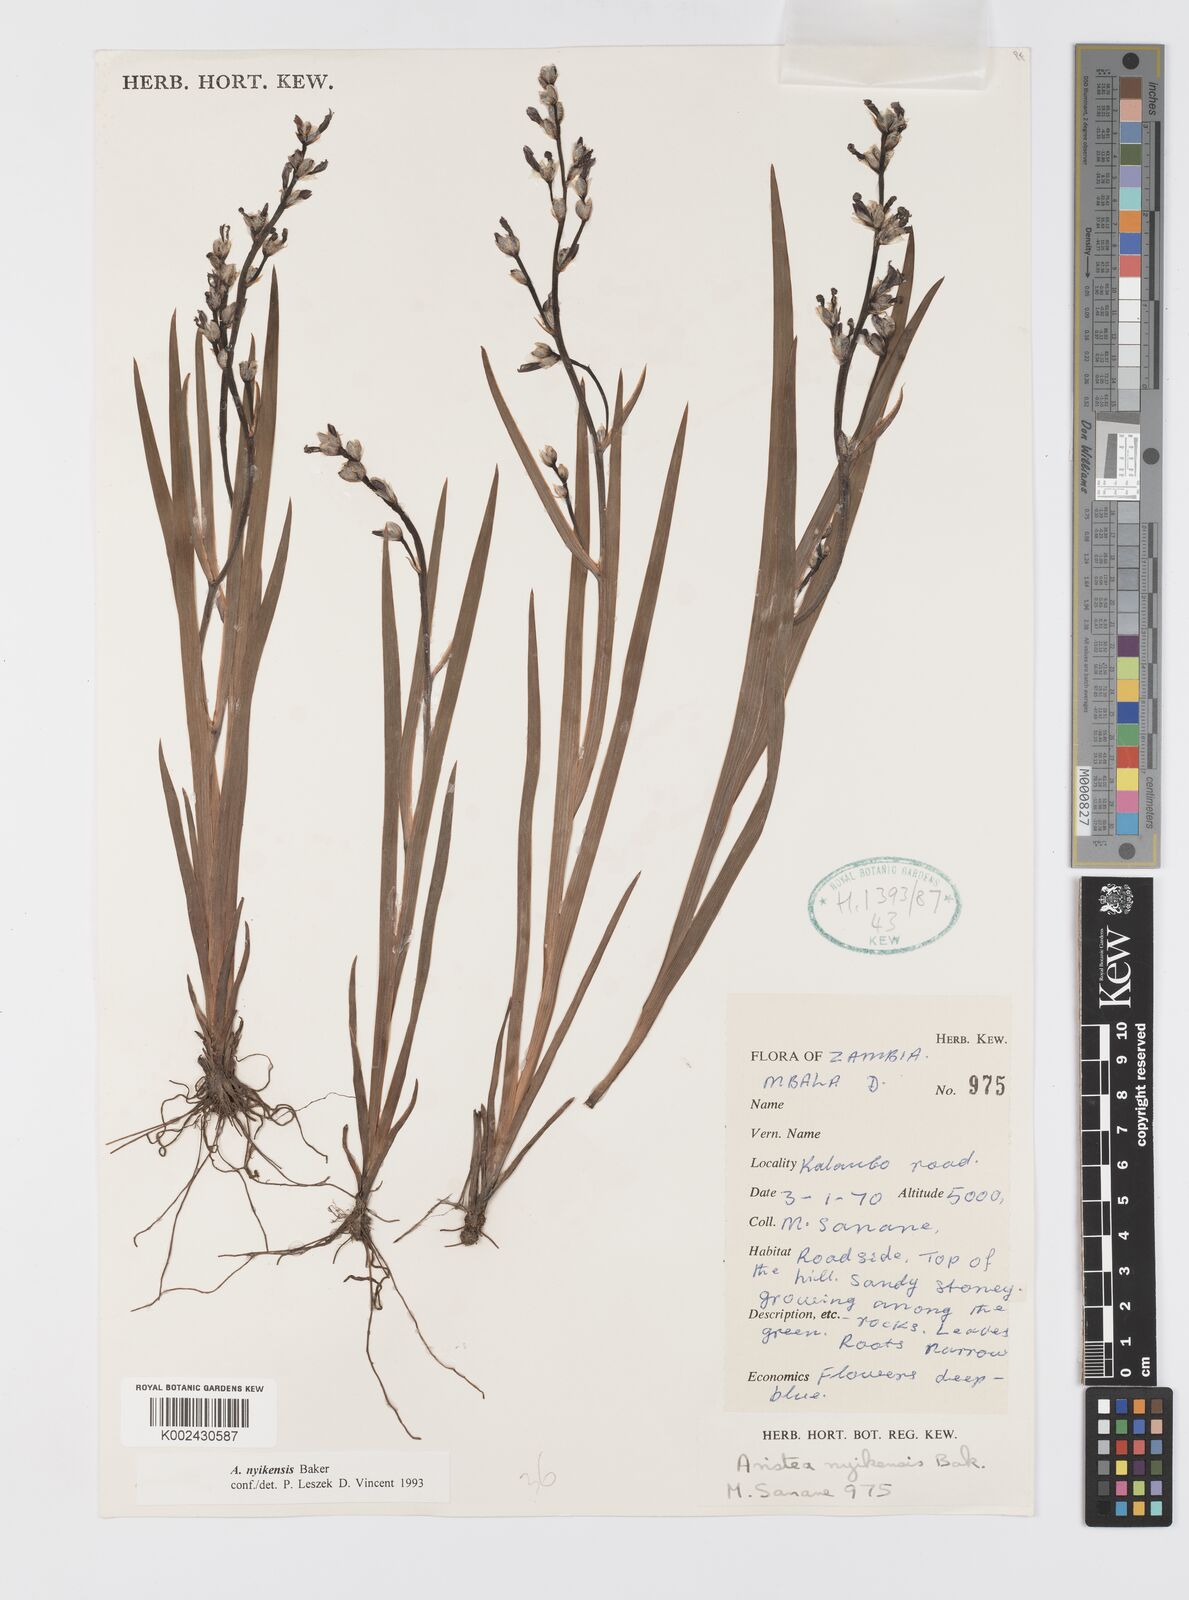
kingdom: Plantae
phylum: Tracheophyta
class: Liliopsida
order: Asparagales
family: Iridaceae
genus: Aristea
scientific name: Aristea nyikensis
